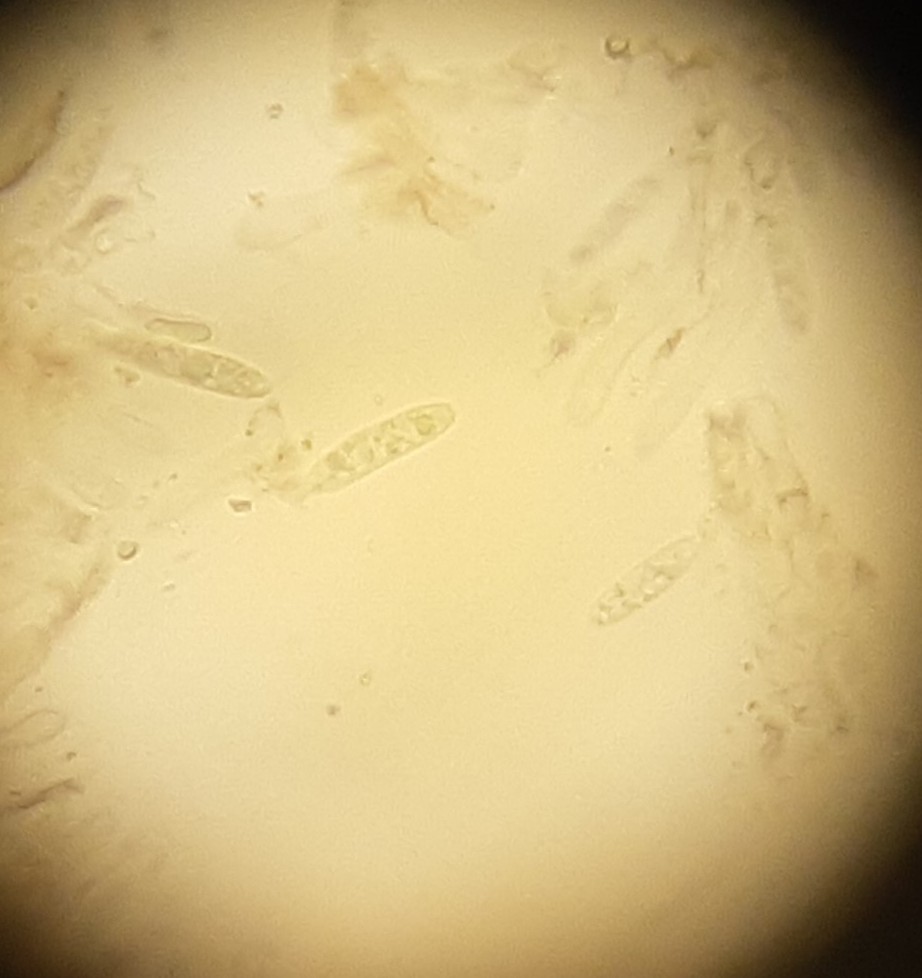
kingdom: Fungi
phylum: Ascomycota
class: Sordariomycetes
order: Glomerellales
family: Glomerellaceae
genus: Colletotrichum
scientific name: Colletotrichum gloeosporioides
